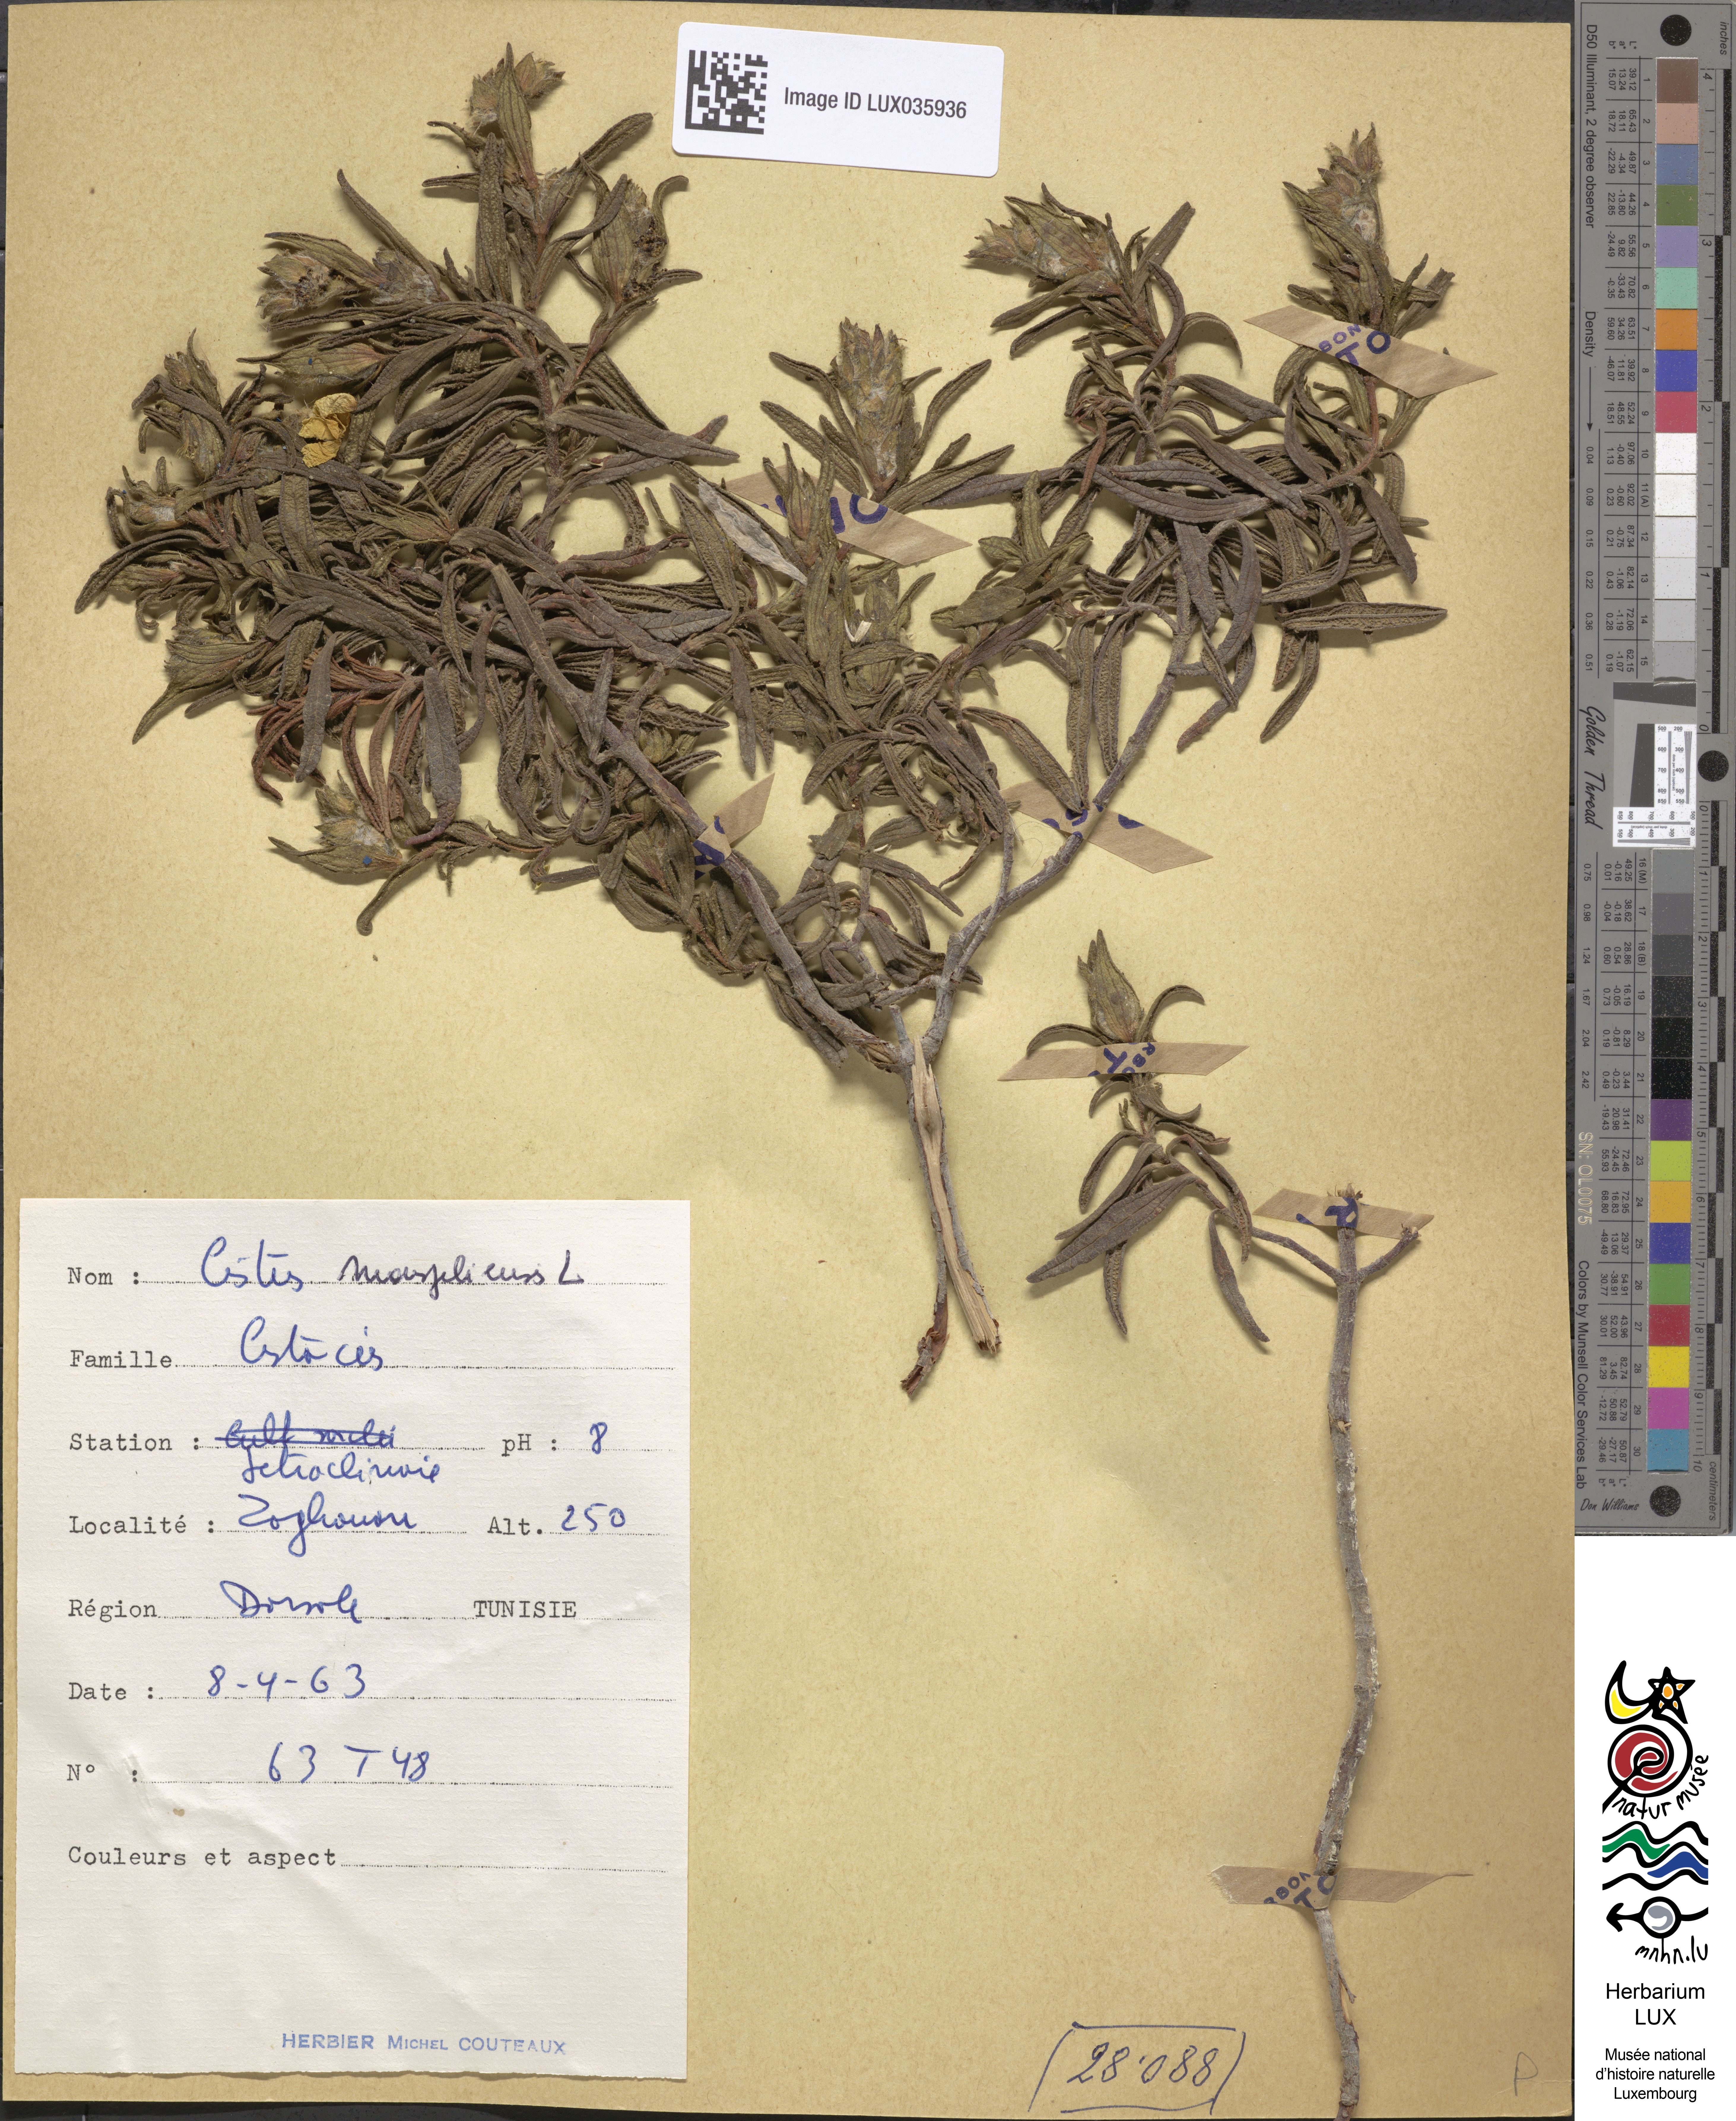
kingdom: Plantae
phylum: Tracheophyta
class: Magnoliopsida
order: Malvales
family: Cistaceae
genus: Cistus
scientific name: Cistus monspeliensis
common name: Montpelier cistus
